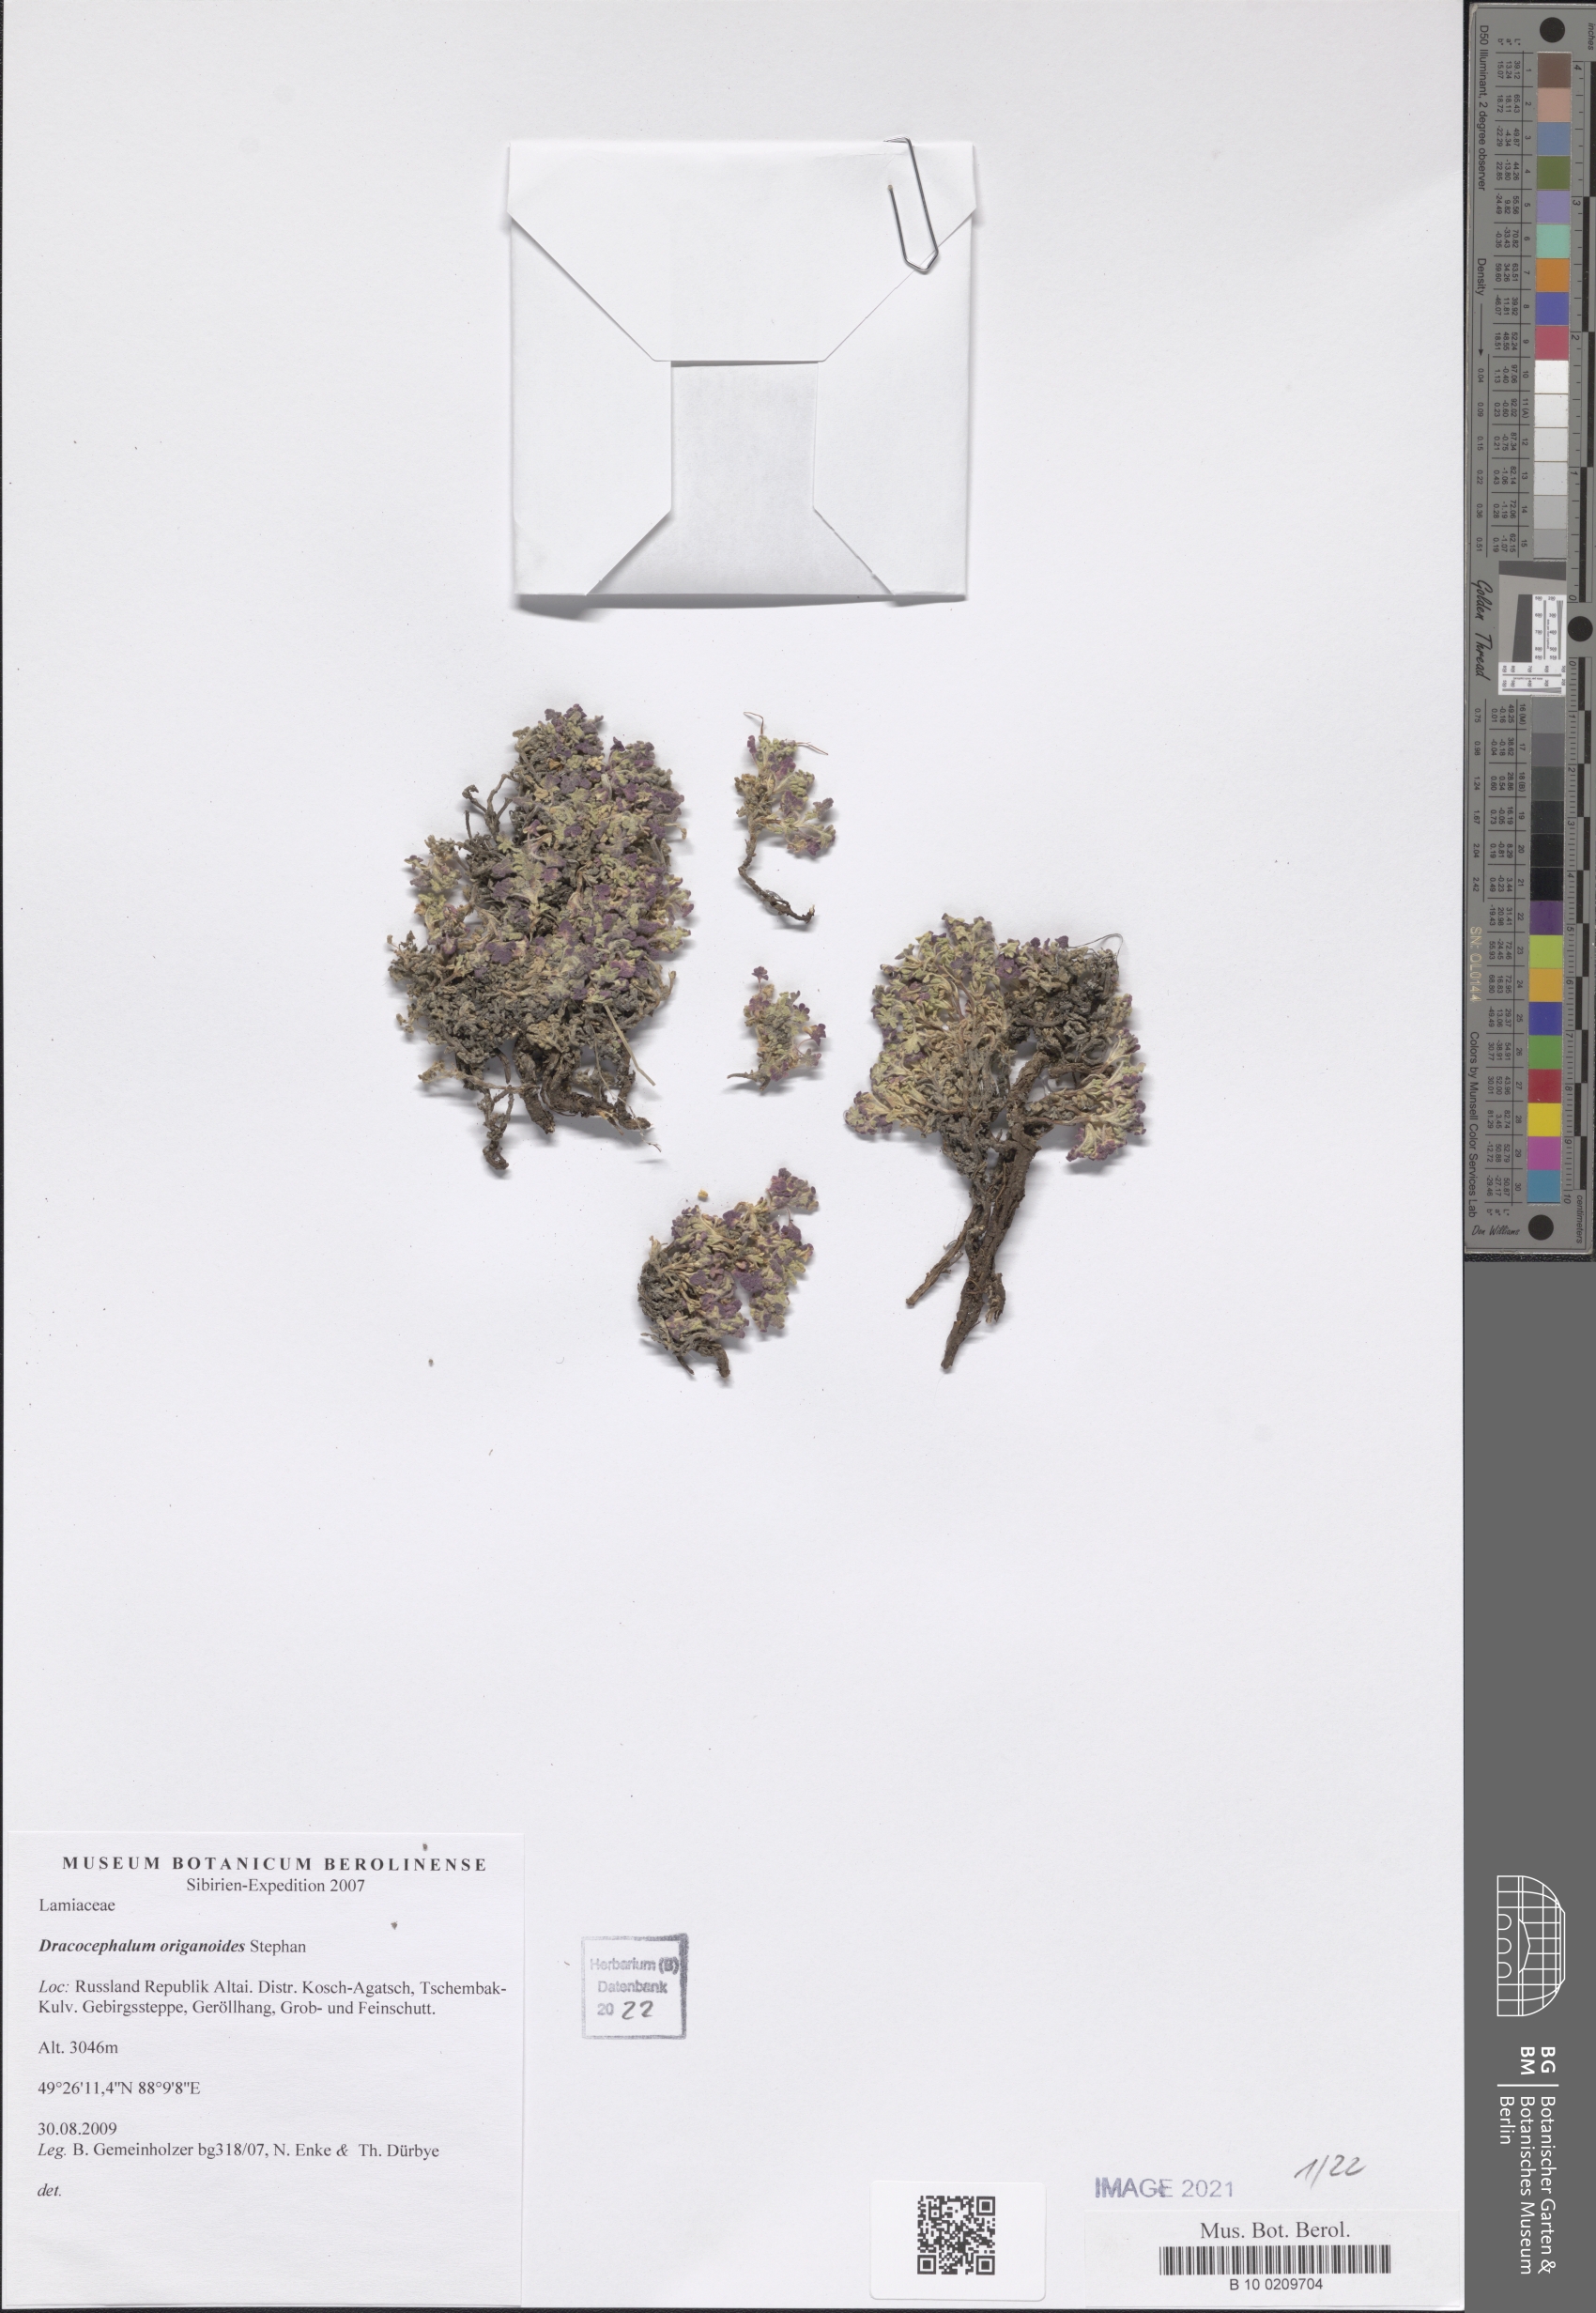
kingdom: Plantae
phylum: Tracheophyta
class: Magnoliopsida
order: Lamiales
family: Lamiaceae
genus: Dracocephalum
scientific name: Dracocephalum origanoides
